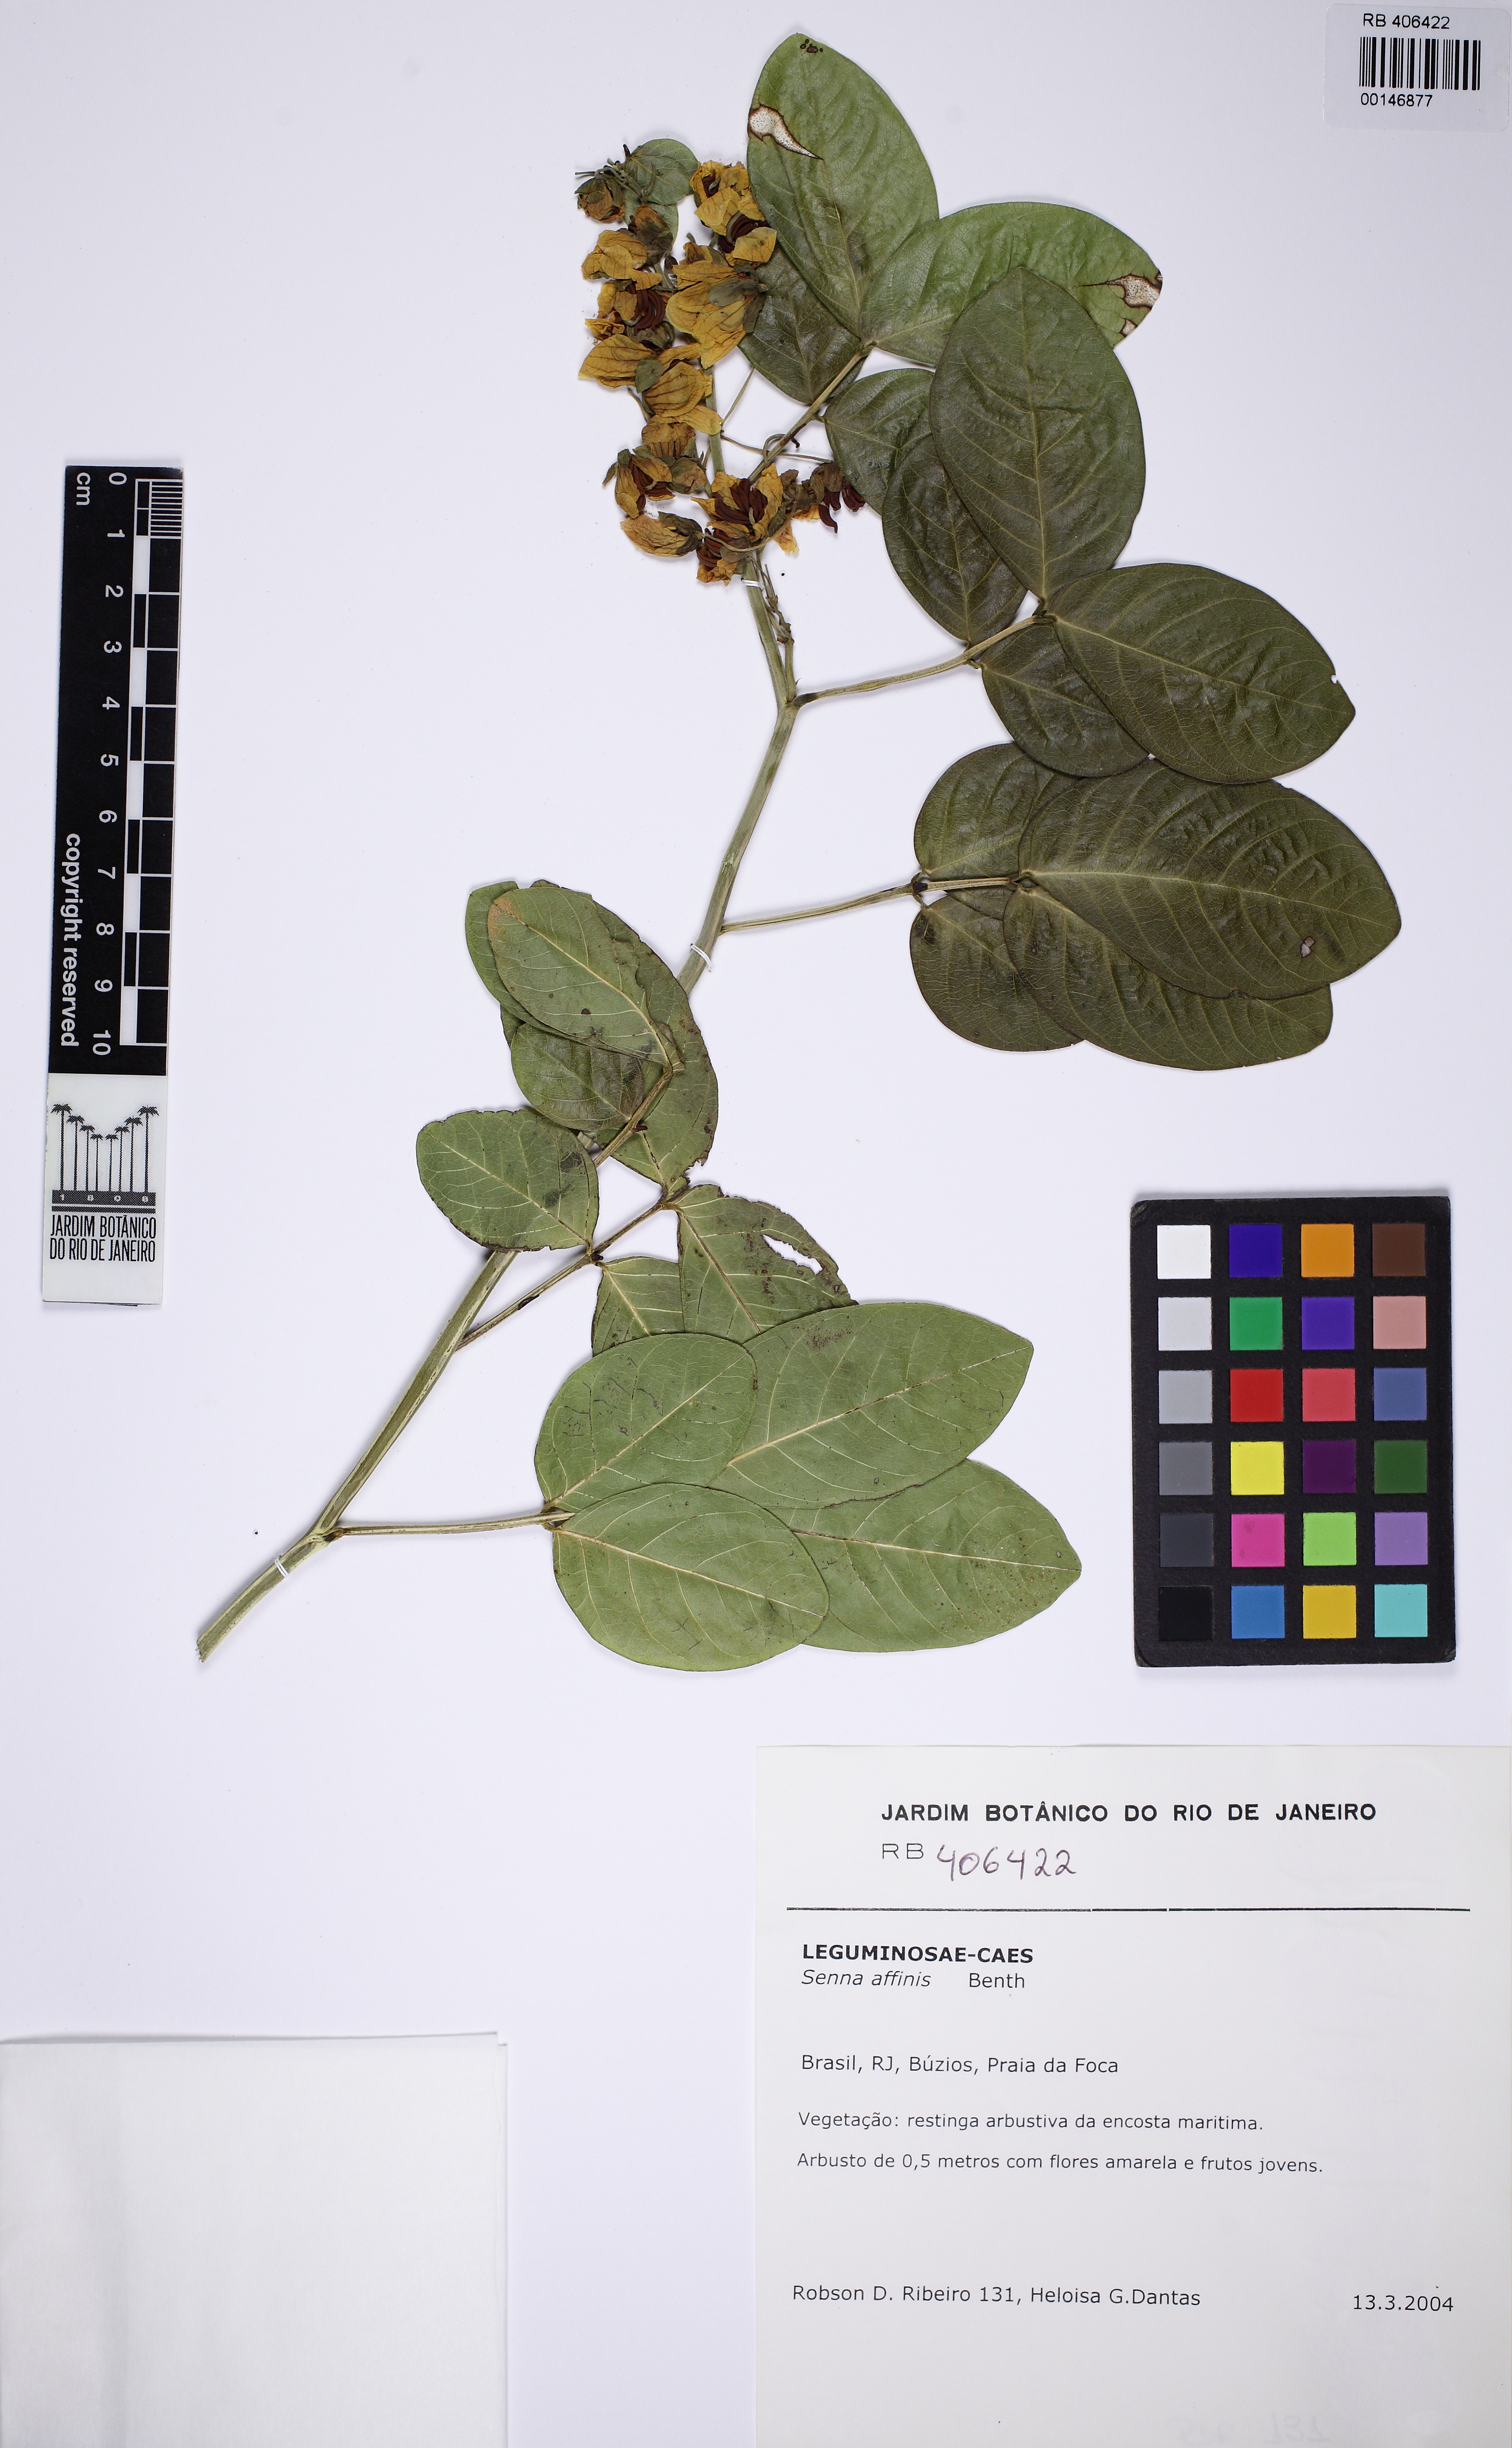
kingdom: Plantae
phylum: Tracheophyta
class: Magnoliopsida
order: Fabales
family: Fabaceae
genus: Senna
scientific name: Senna affinis
